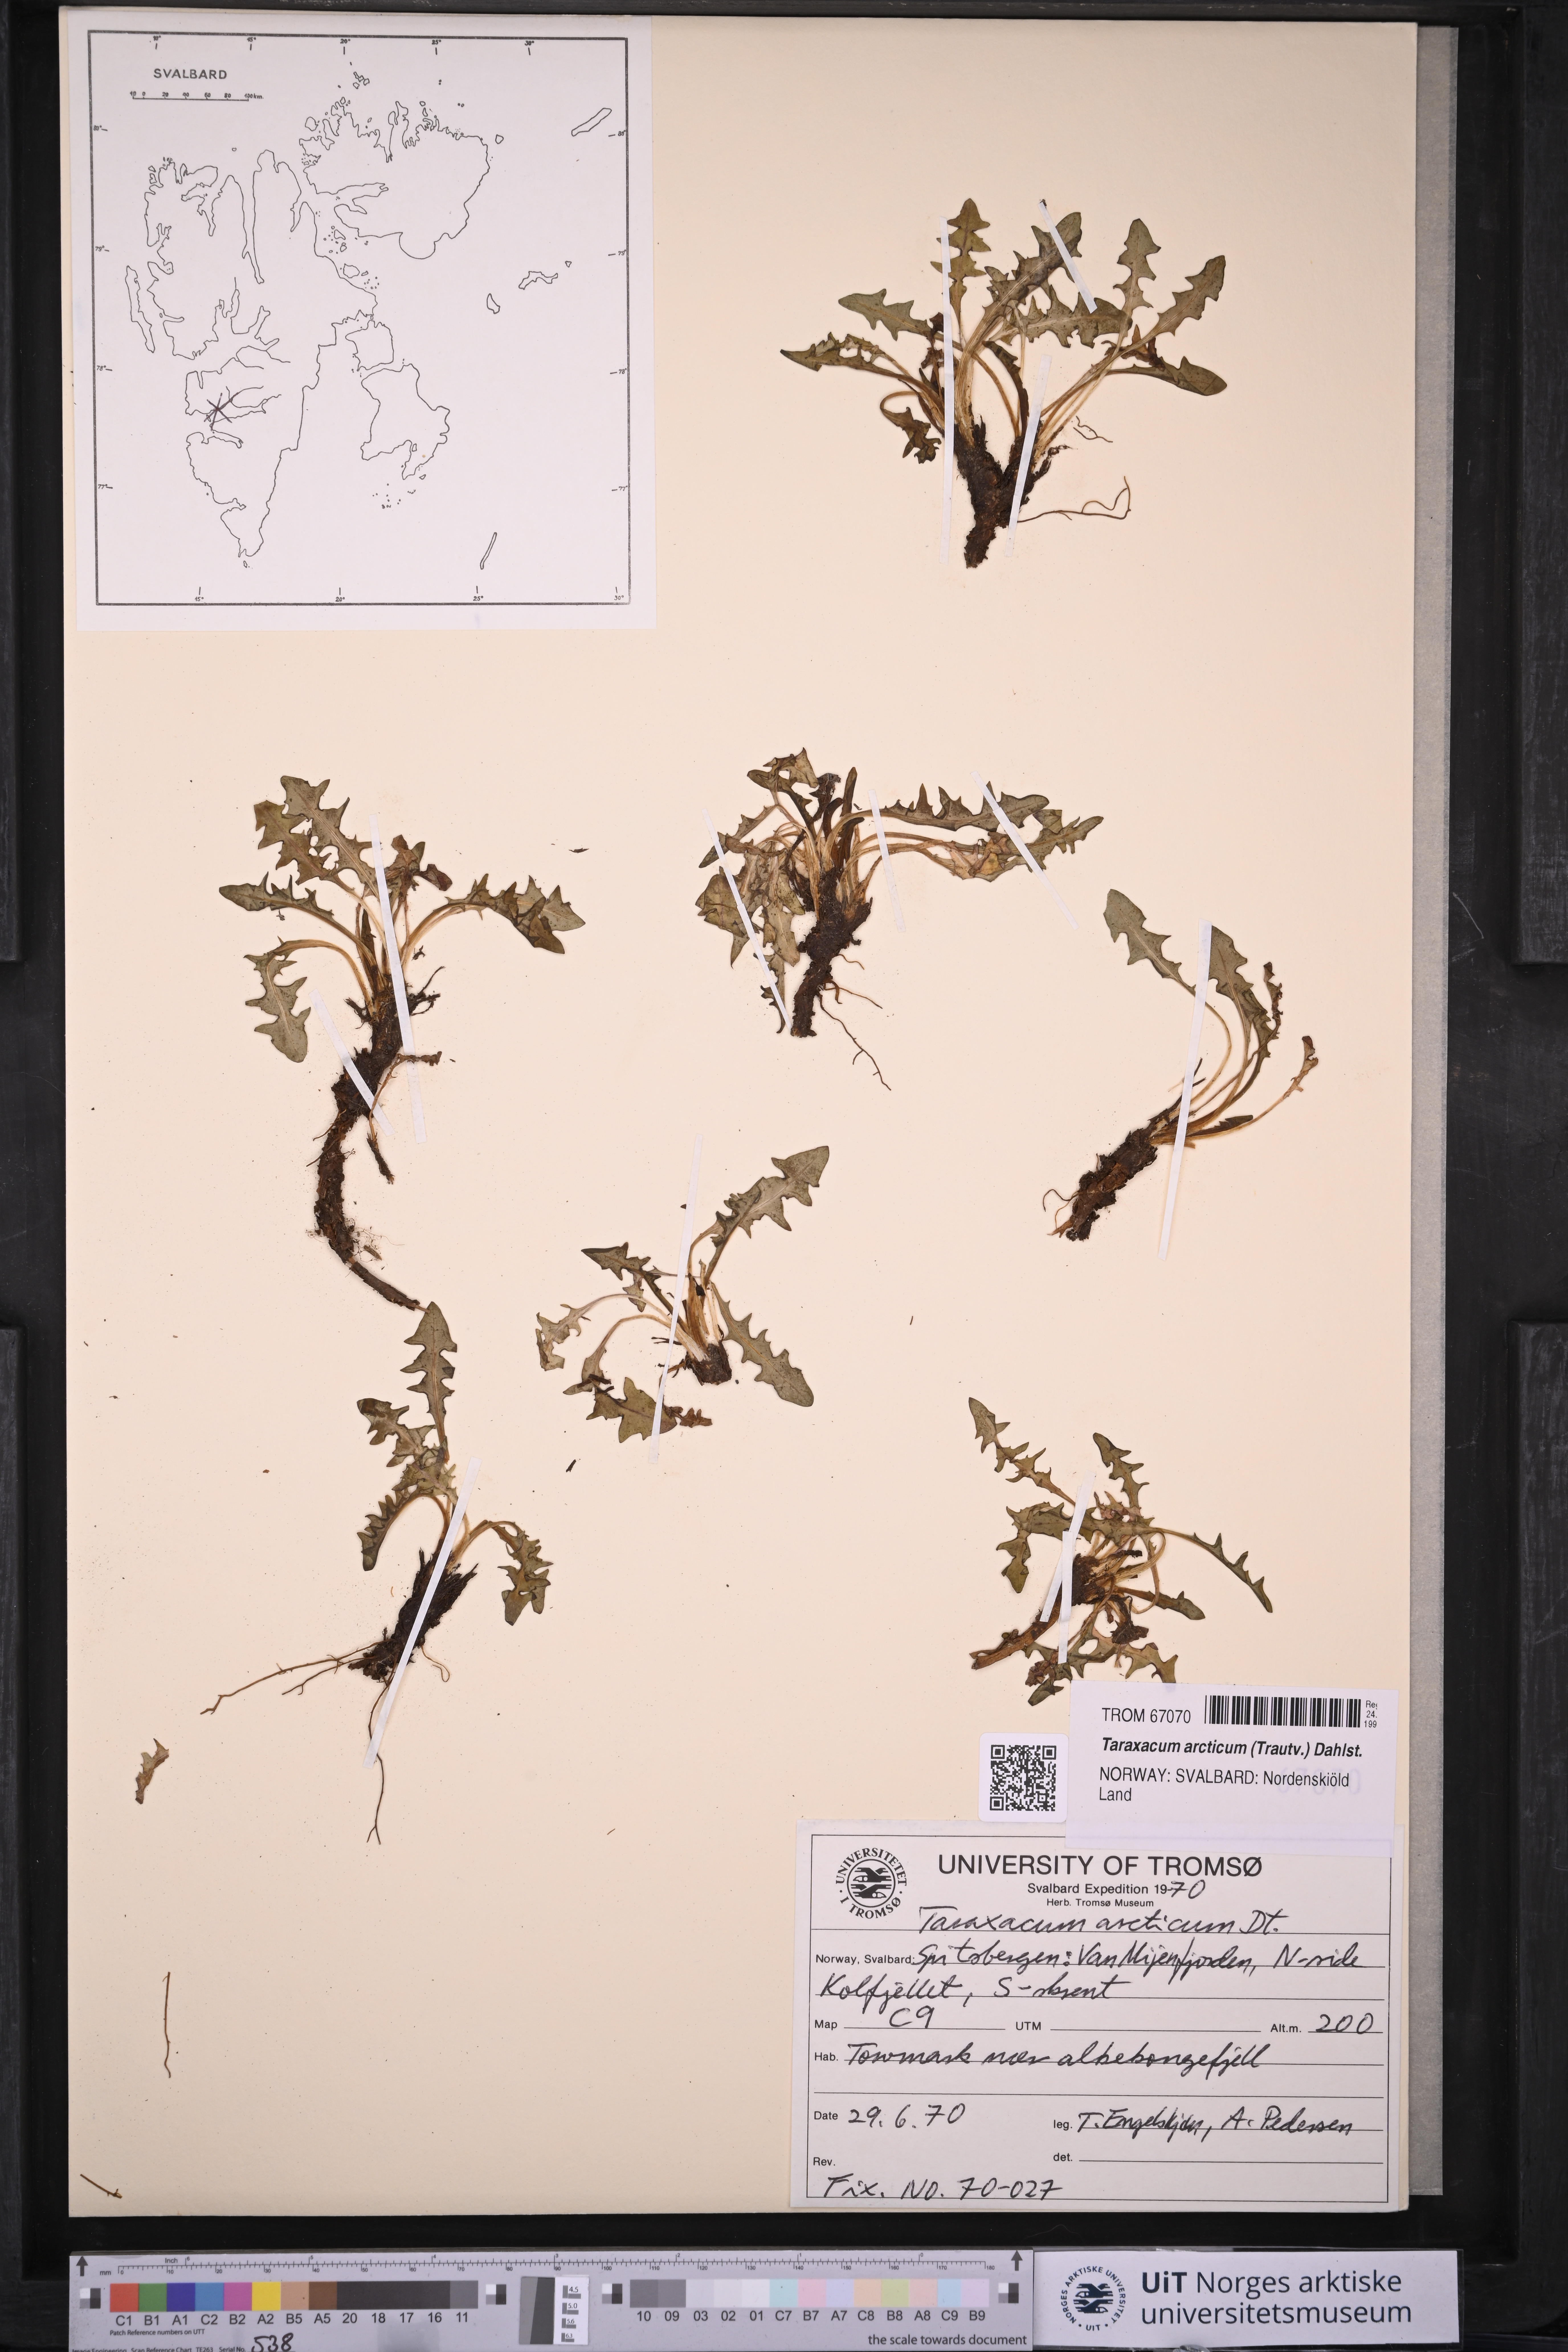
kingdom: Plantae
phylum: Tracheophyta
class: Magnoliopsida
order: Asterales
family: Asteraceae
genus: Taraxacum
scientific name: Taraxacum arcticum
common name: Arctic dandelion
